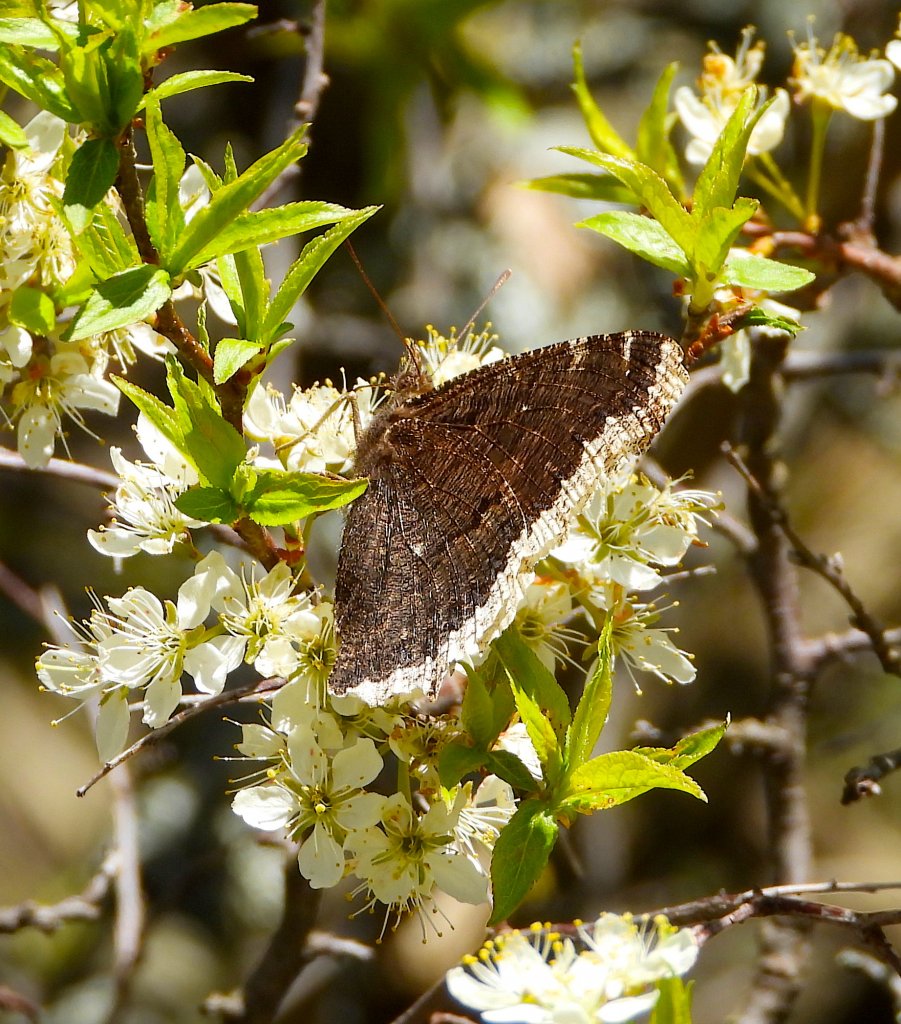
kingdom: Animalia
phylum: Arthropoda
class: Insecta
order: Lepidoptera
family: Nymphalidae
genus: Nymphalis
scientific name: Nymphalis antiopa
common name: Mourning Cloak
